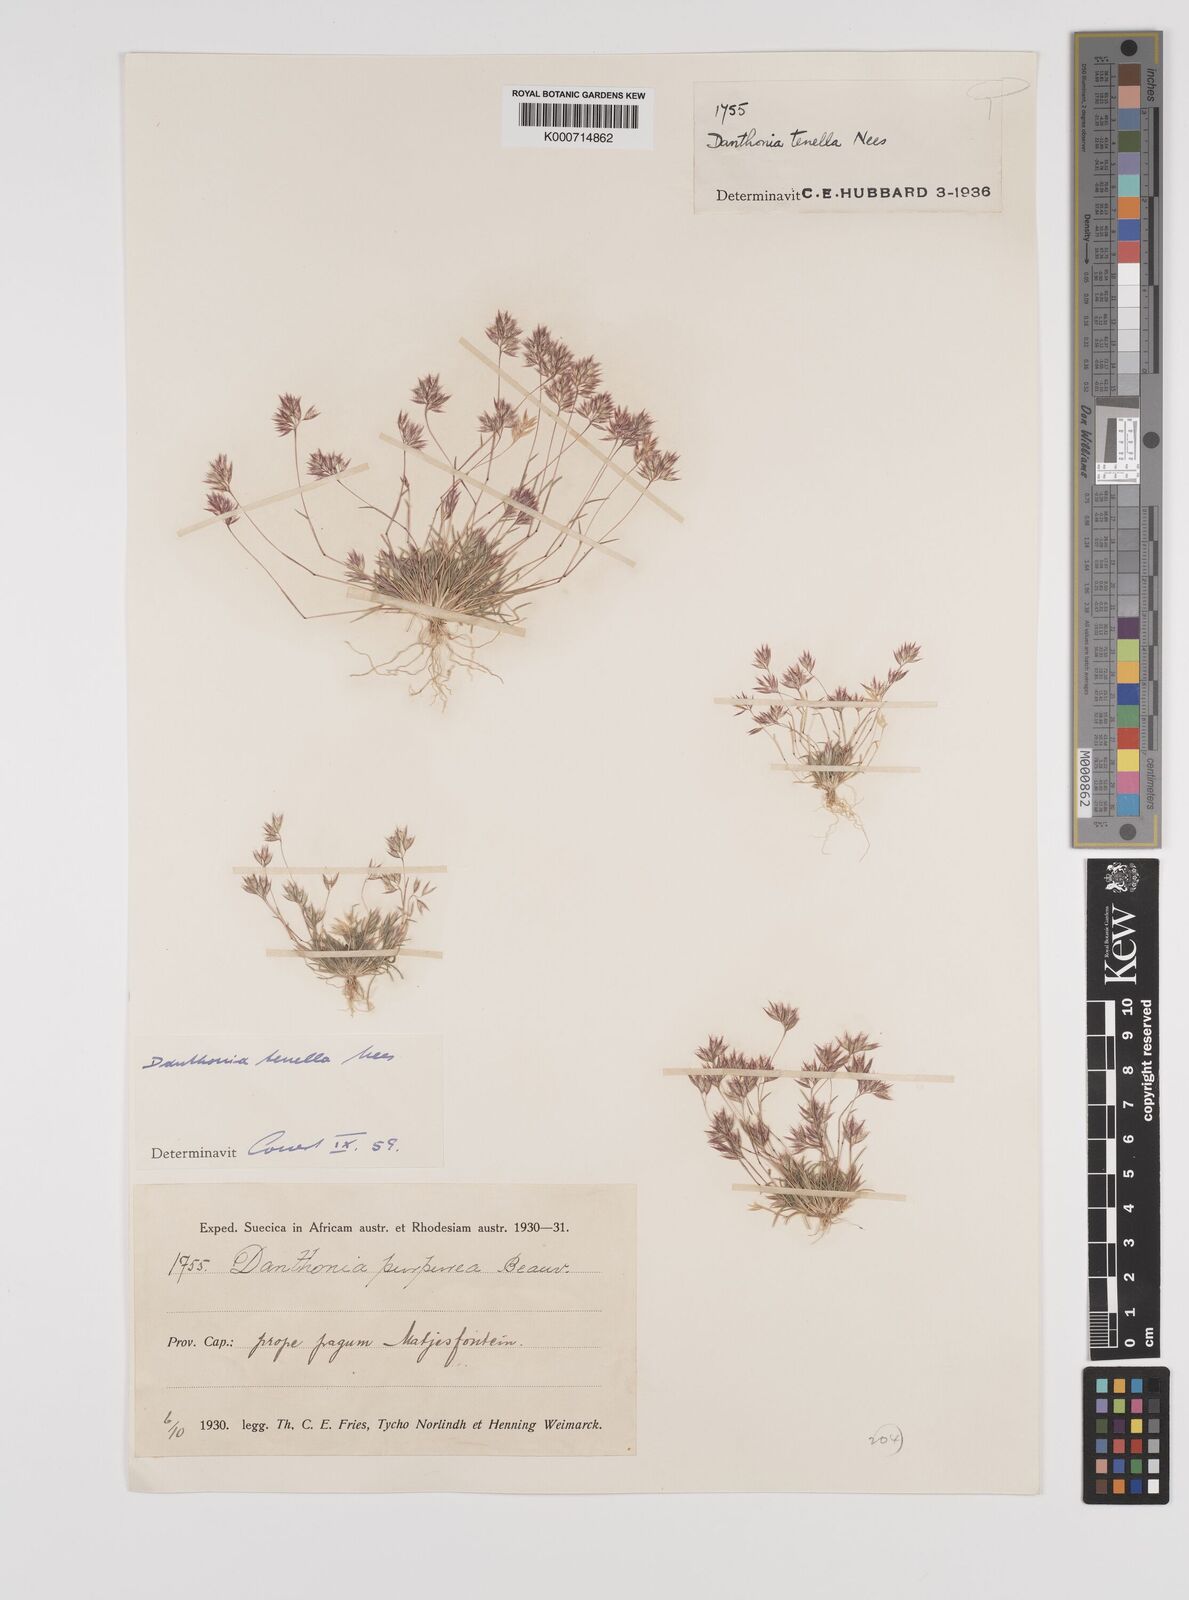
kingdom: Plantae
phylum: Tracheophyta
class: Liliopsida
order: Poales
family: Poaceae
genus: Rytidosperma
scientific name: Rytidosperma
